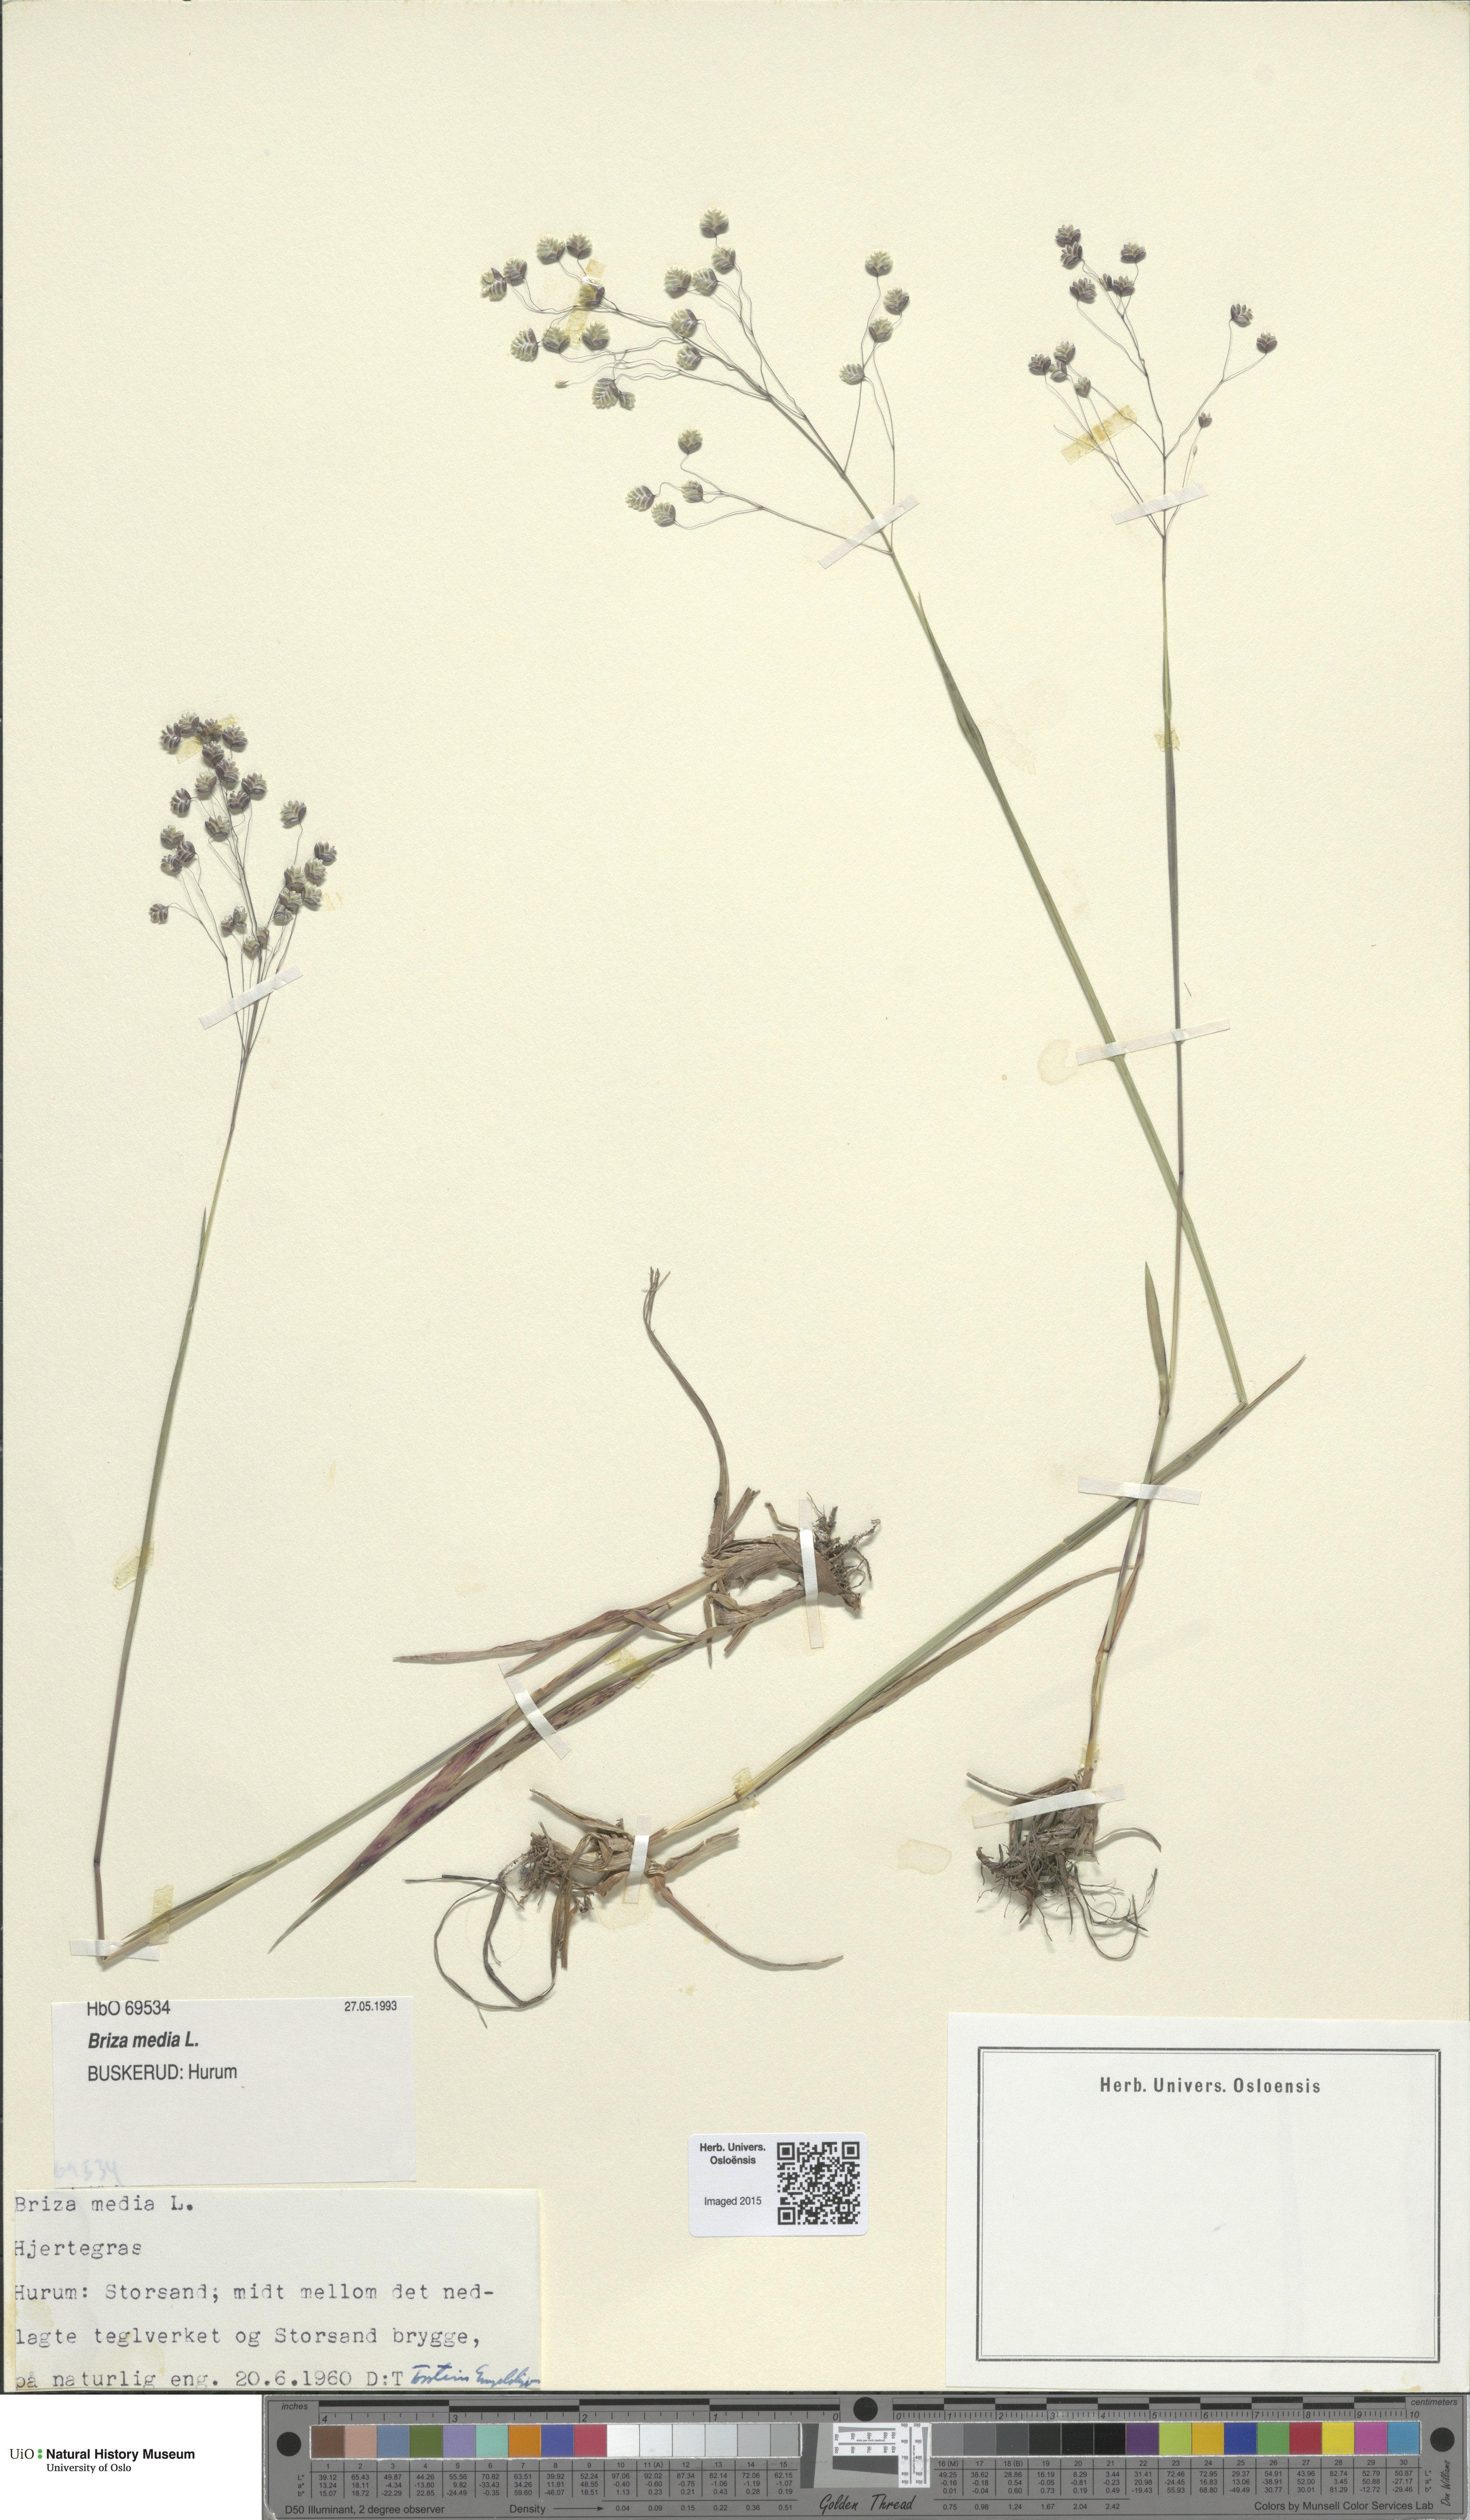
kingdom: Plantae
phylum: Tracheophyta
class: Liliopsida
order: Poales
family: Poaceae
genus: Briza
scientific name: Briza media
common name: Quaking grass
